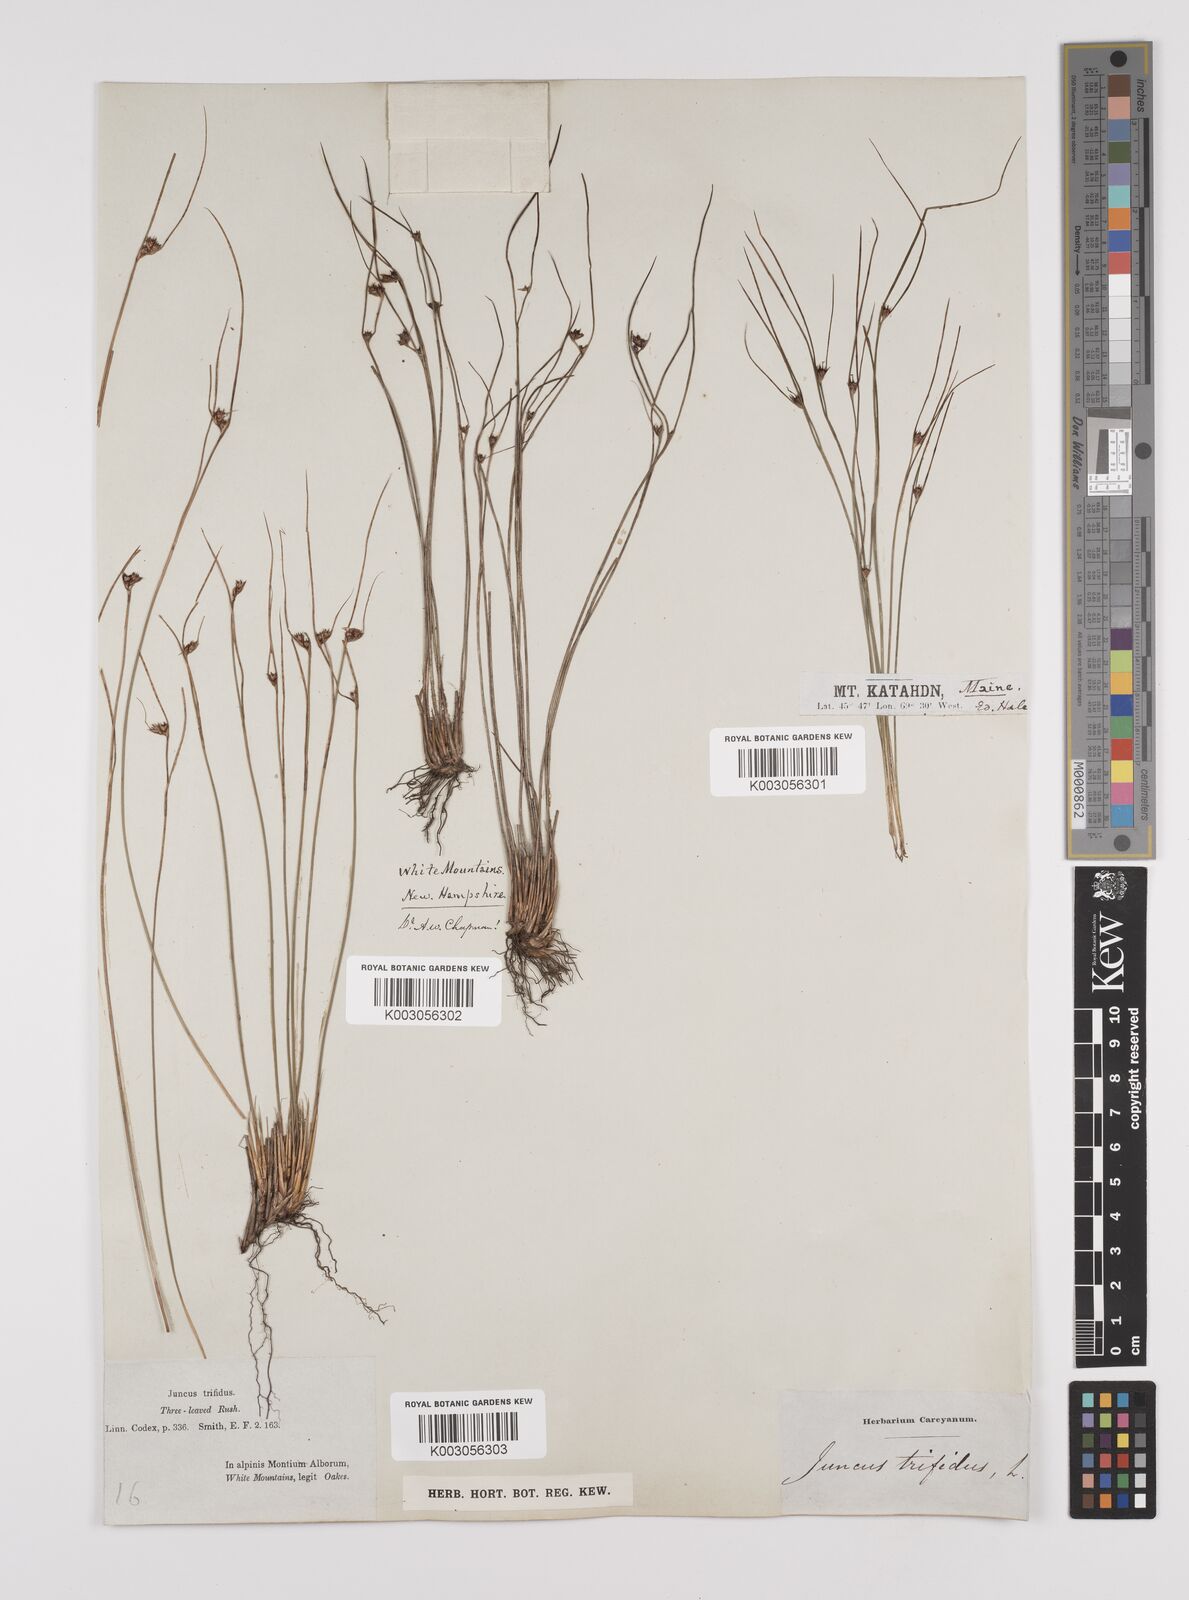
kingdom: Plantae
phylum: Tracheophyta
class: Liliopsida
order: Poales
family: Juncaceae
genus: Oreojuncus
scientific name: Oreojuncus trifidus
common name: Highland rush
